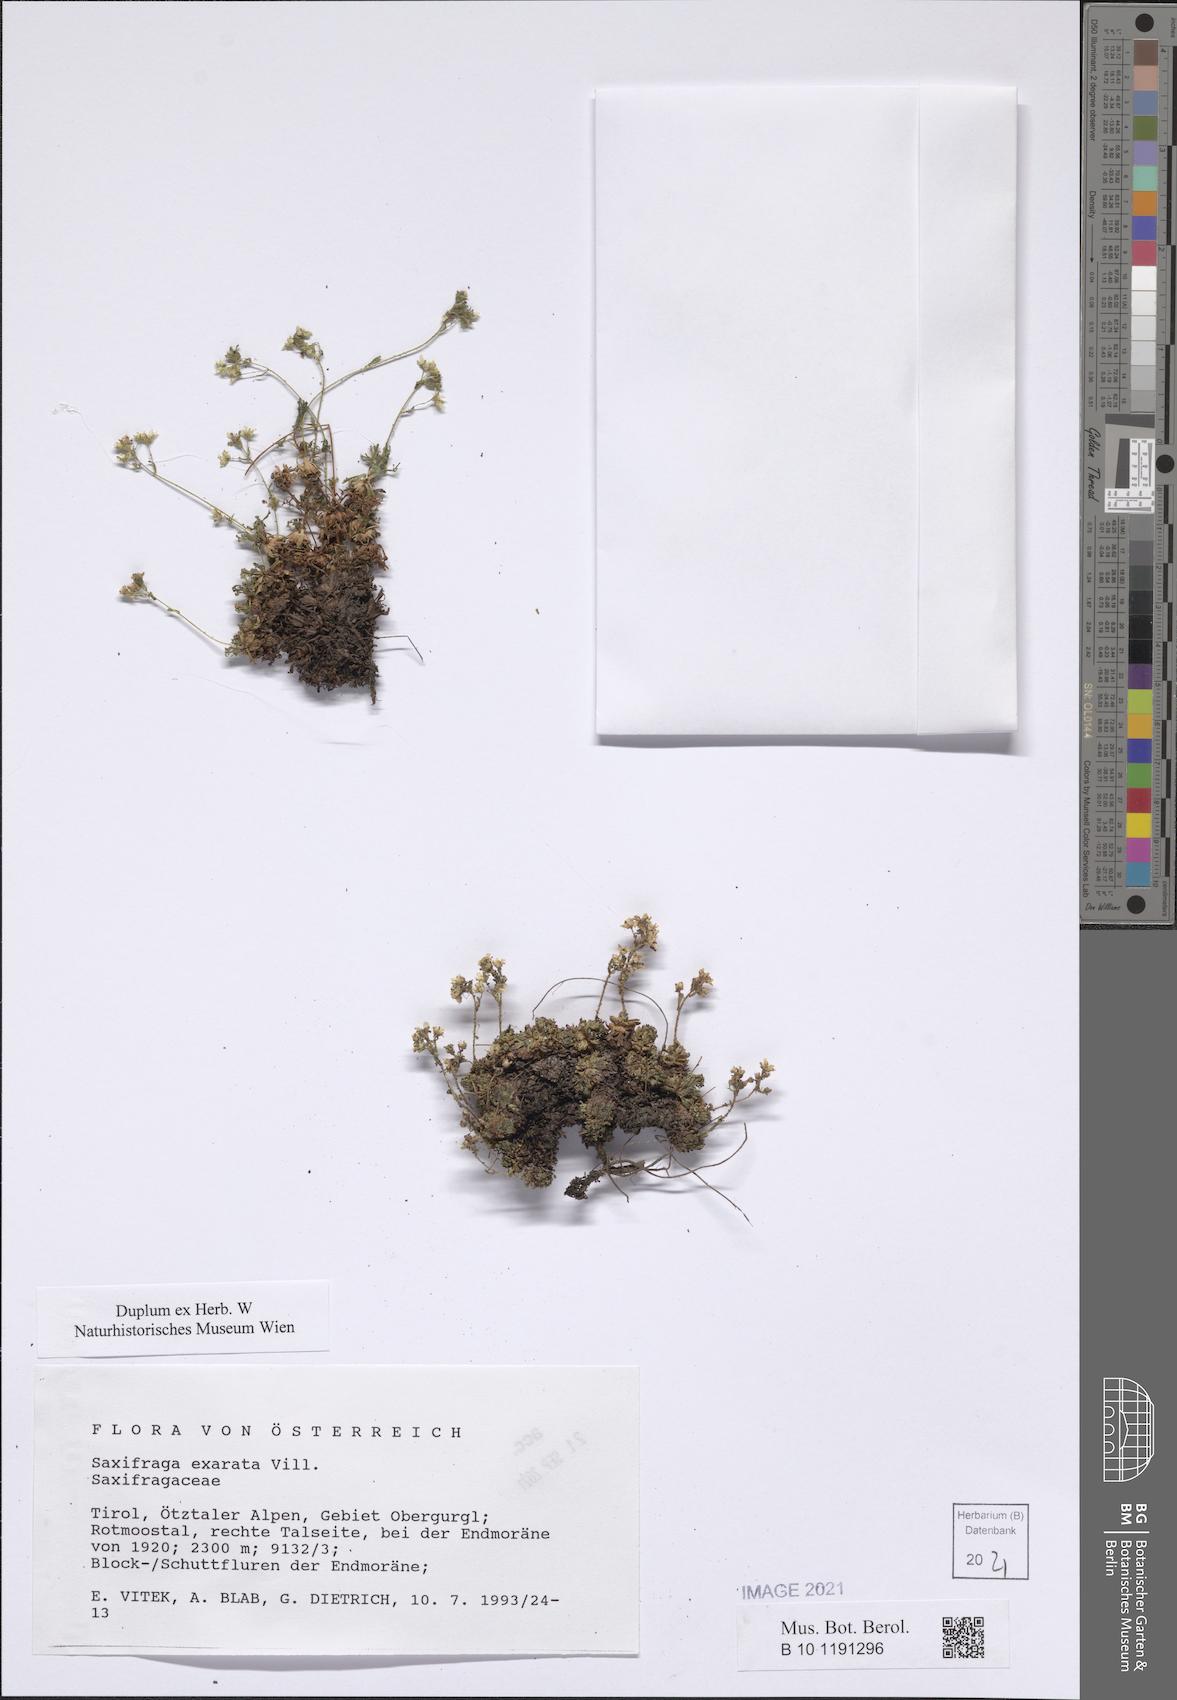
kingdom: Plantae
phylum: Tracheophyta
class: Magnoliopsida
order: Saxifragales
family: Saxifragaceae
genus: Saxifraga
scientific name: Saxifraga exarata
